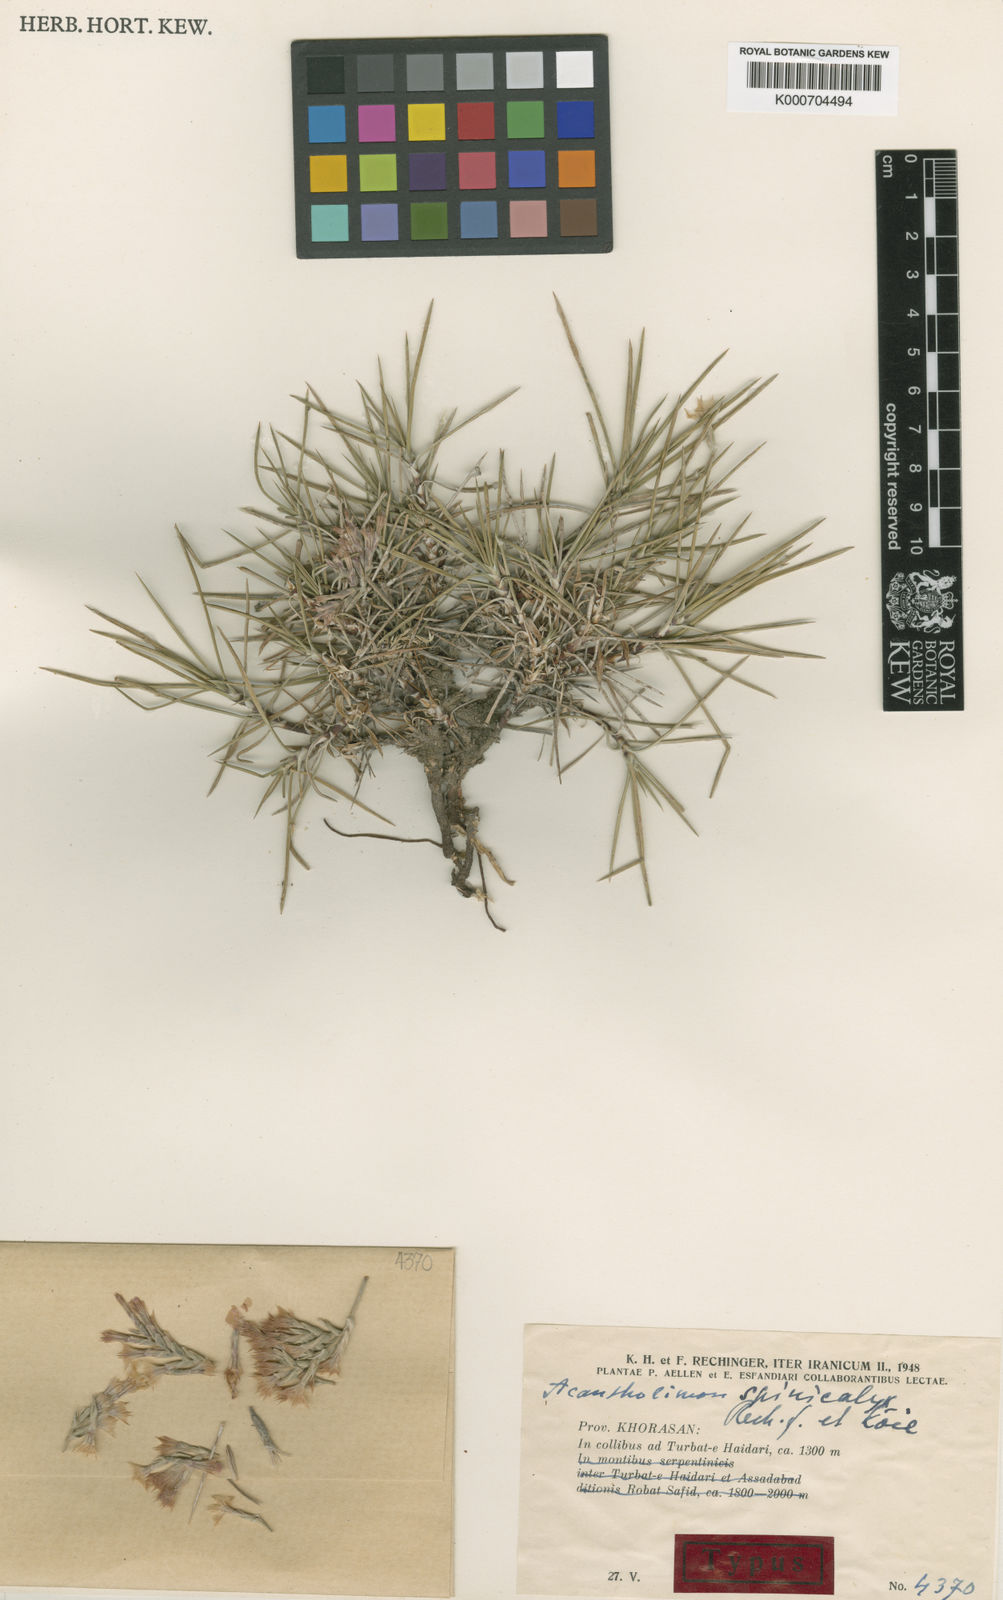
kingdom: Plantae
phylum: Tracheophyta
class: Magnoliopsida
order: Caryophyllales
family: Plumbaginaceae
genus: Acantholimon
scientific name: Acantholimon
